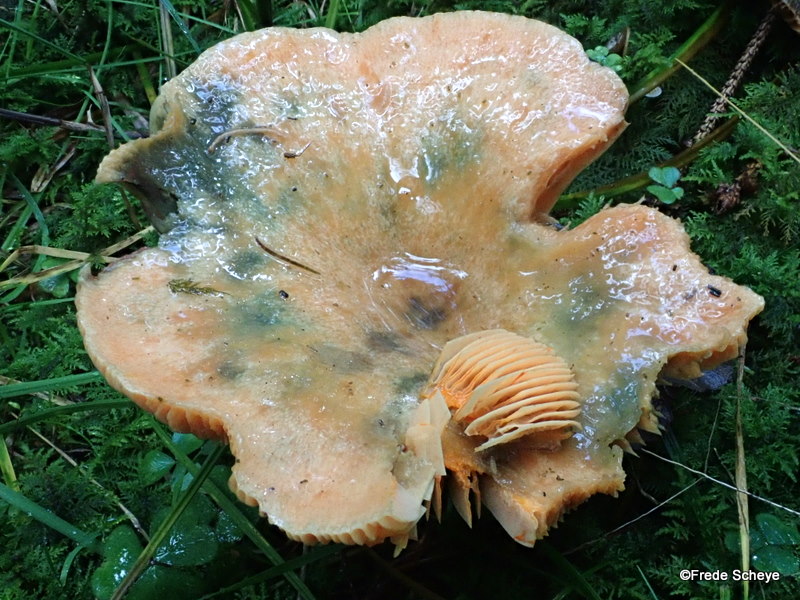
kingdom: Fungi
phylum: Basidiomycota
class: Agaricomycetes
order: Russulales
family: Russulaceae
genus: Lactarius
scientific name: Lactarius deterrimus
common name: gran-mælkehat
